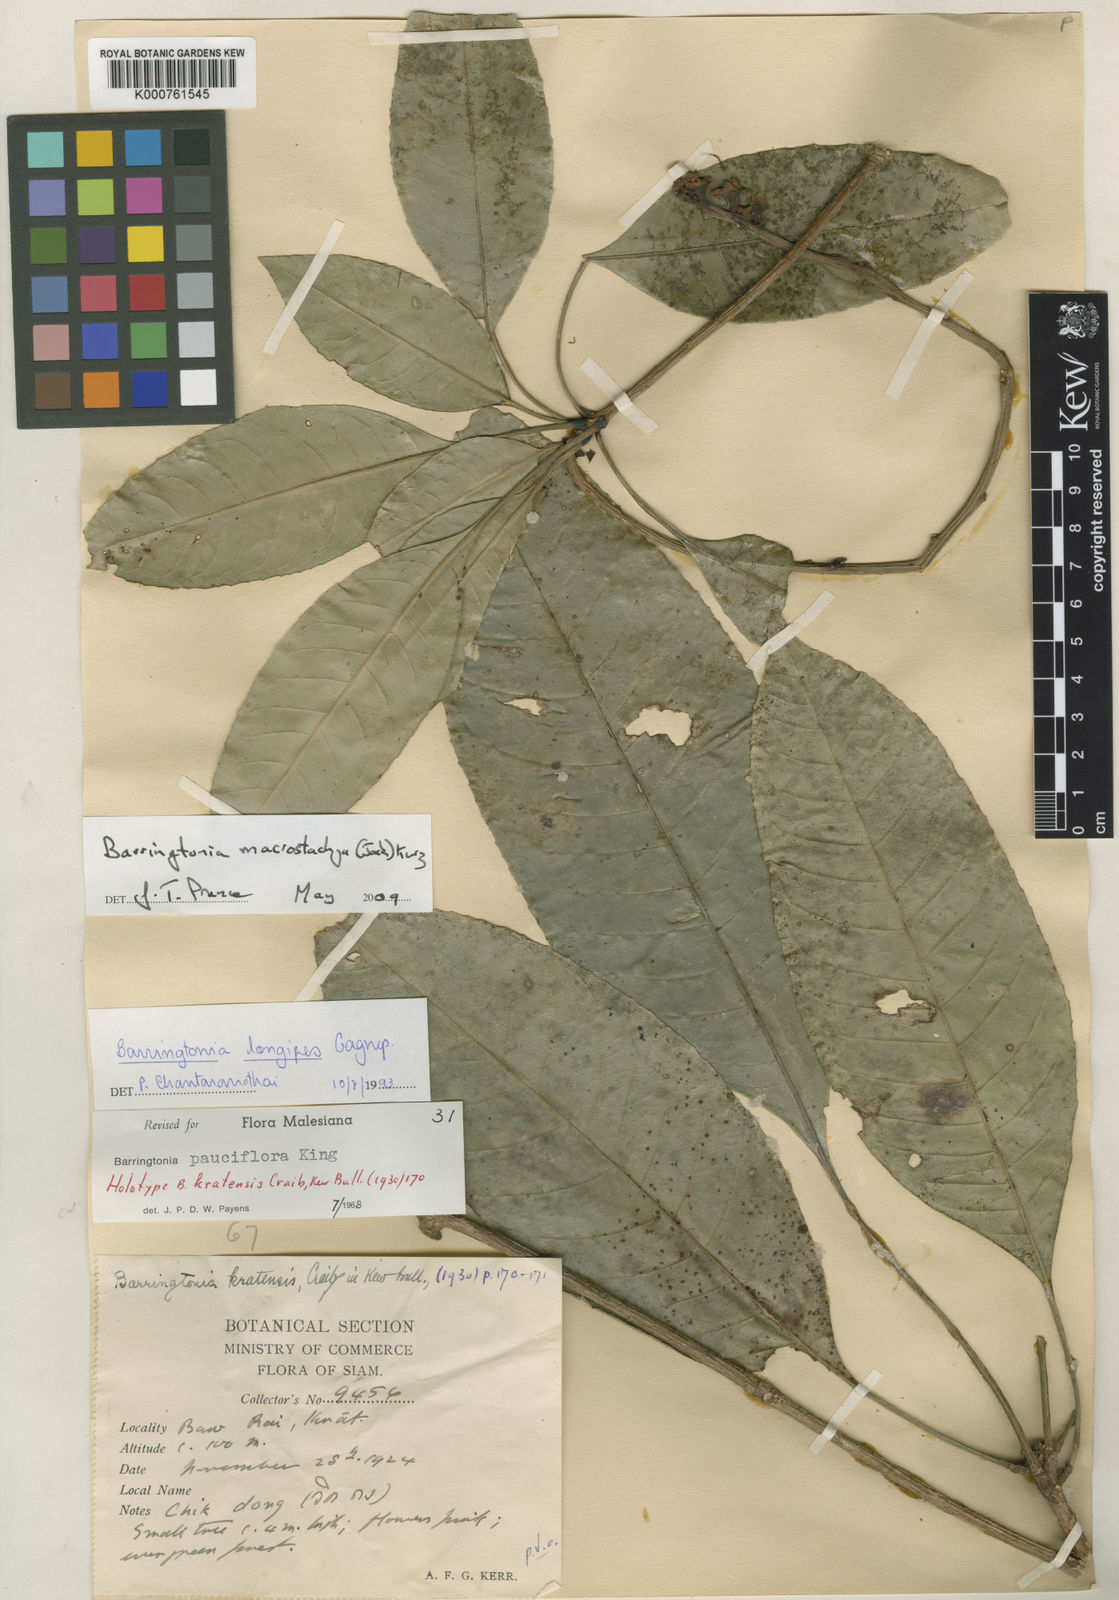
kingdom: Plantae
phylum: Tracheophyta
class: Magnoliopsida
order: Ericales
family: Lecythidaceae
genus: Barringtonia
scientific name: Barringtonia macrostachya
